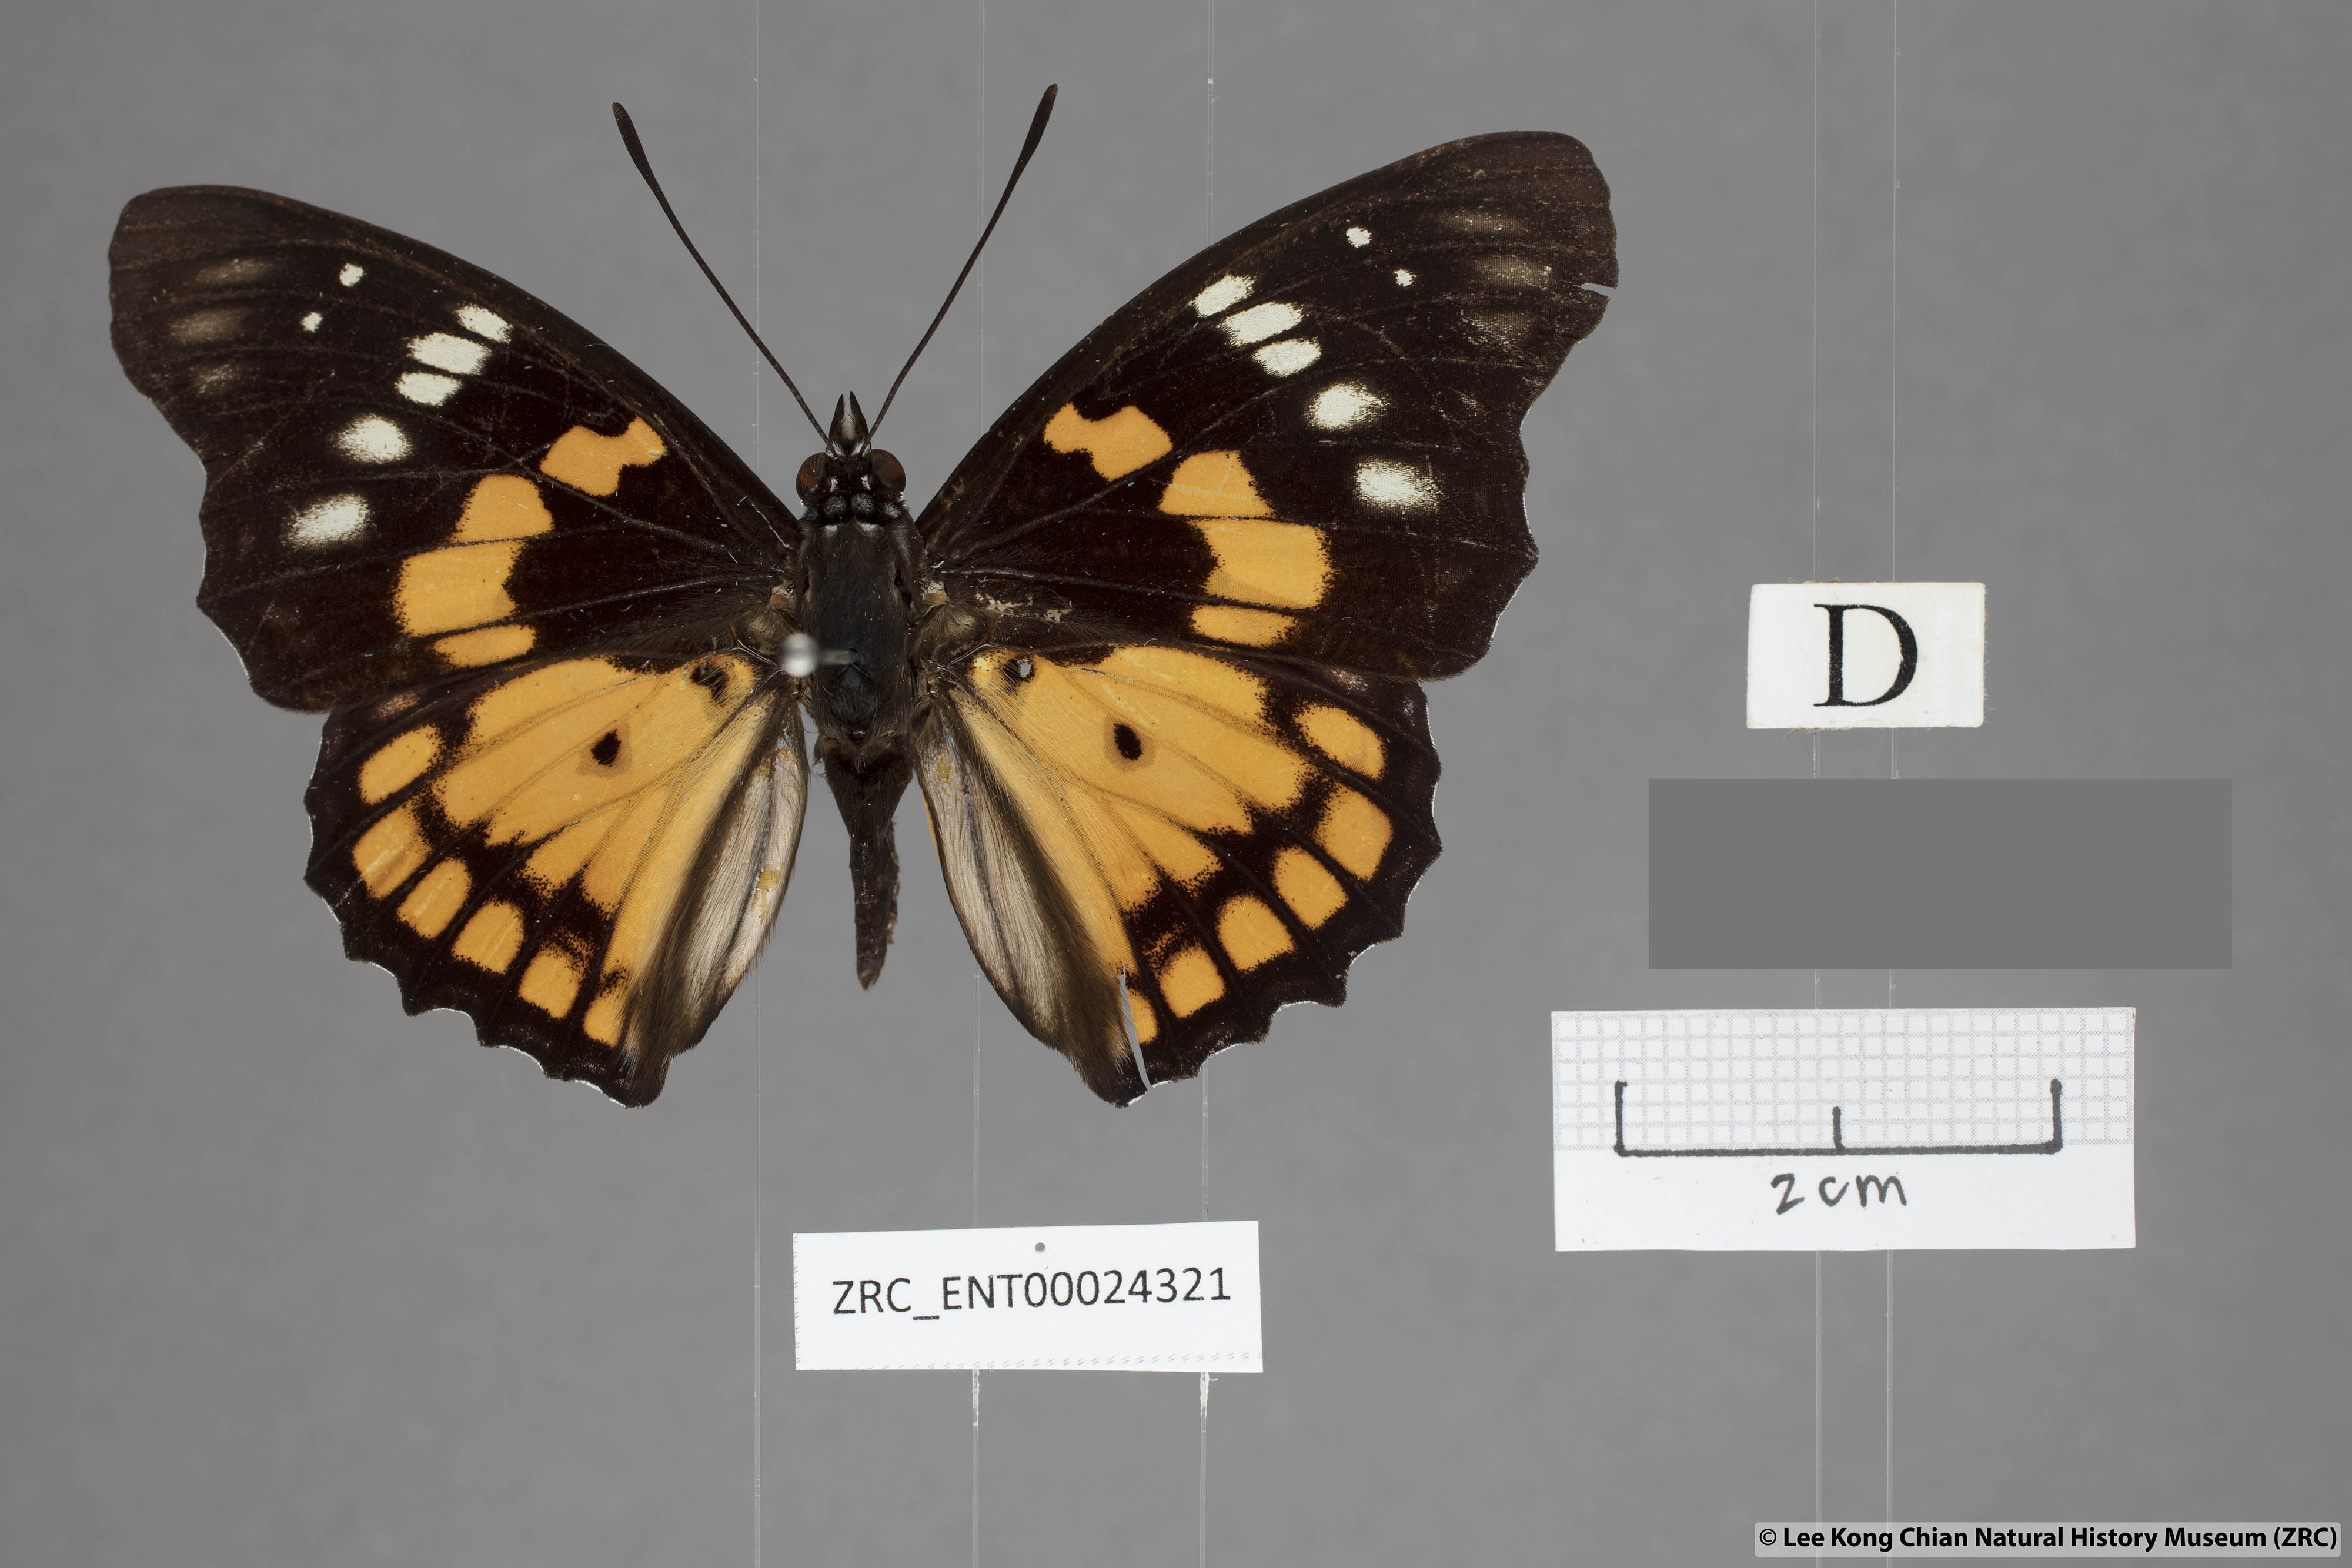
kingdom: Animalia
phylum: Arthropoda
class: Insecta
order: Lepidoptera
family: Nymphalidae
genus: Sephisa
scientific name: Sephisa chandra
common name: Eastern courtier
